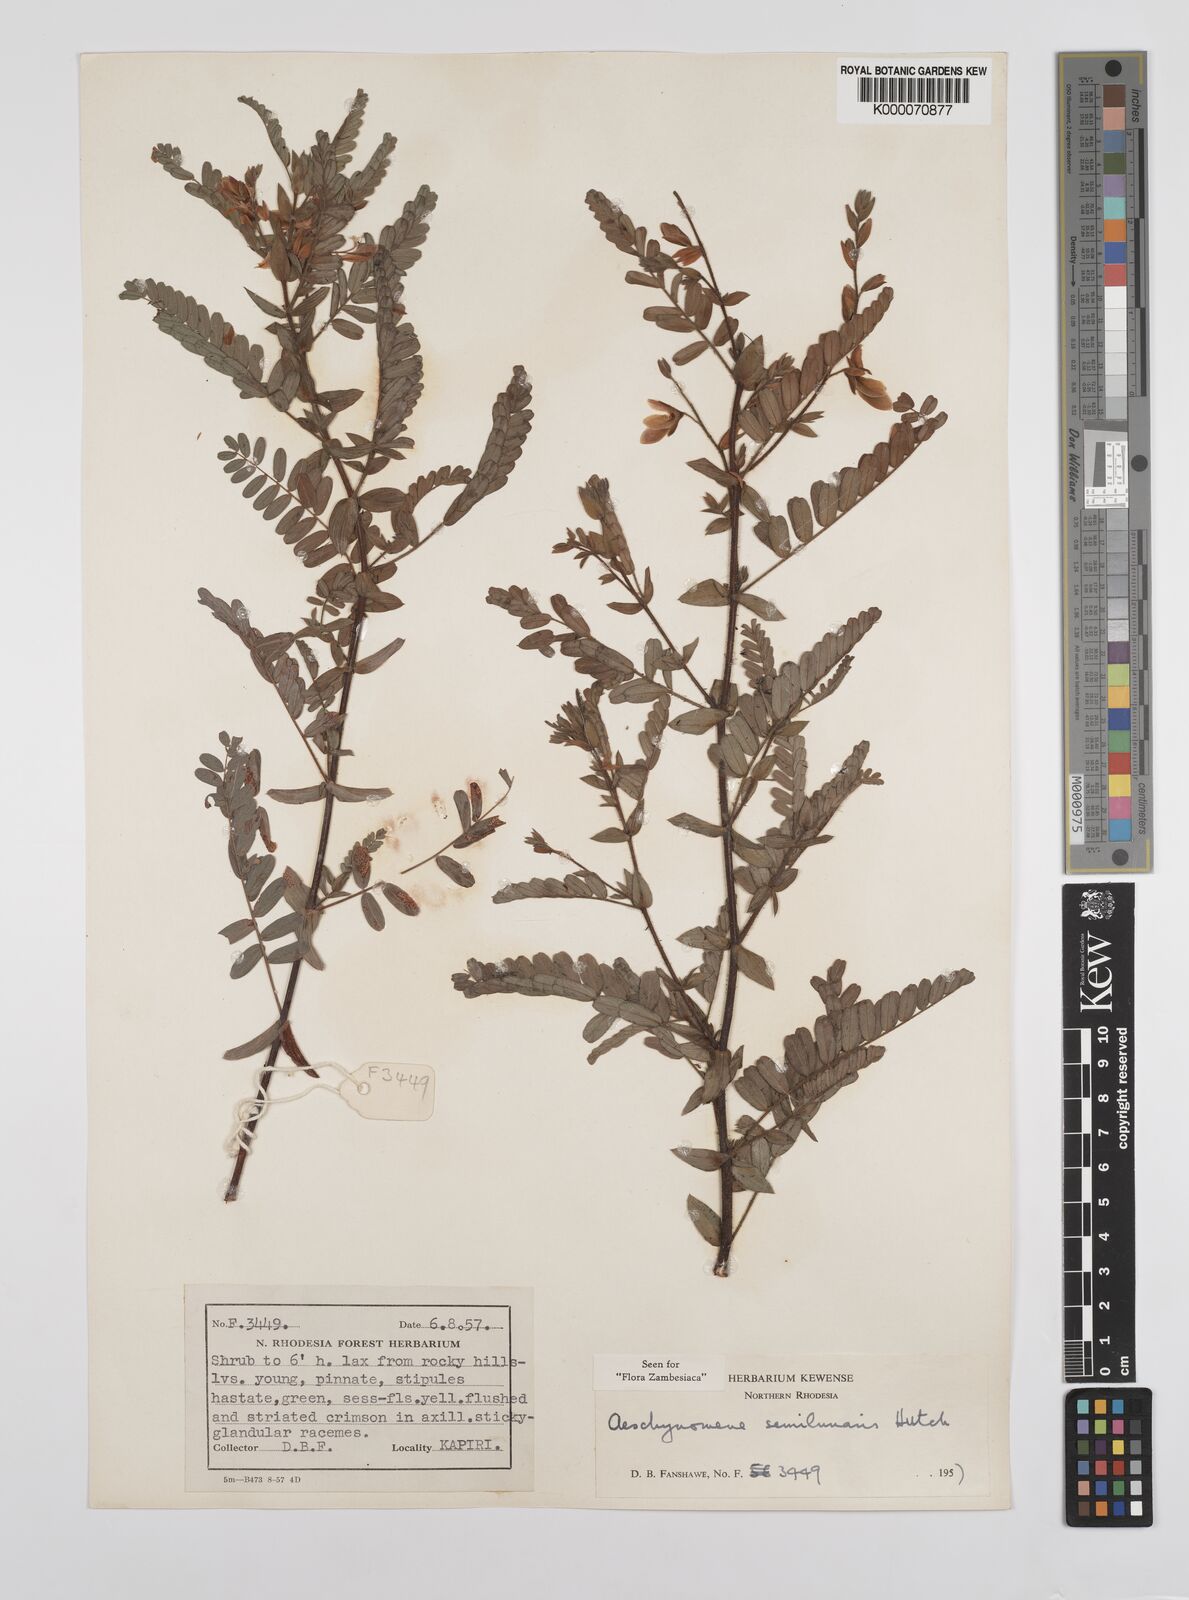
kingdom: Plantae
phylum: Tracheophyta
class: Magnoliopsida
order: Fabales
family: Fabaceae
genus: Aeschynomene
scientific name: Aeschynomene semilunaris
